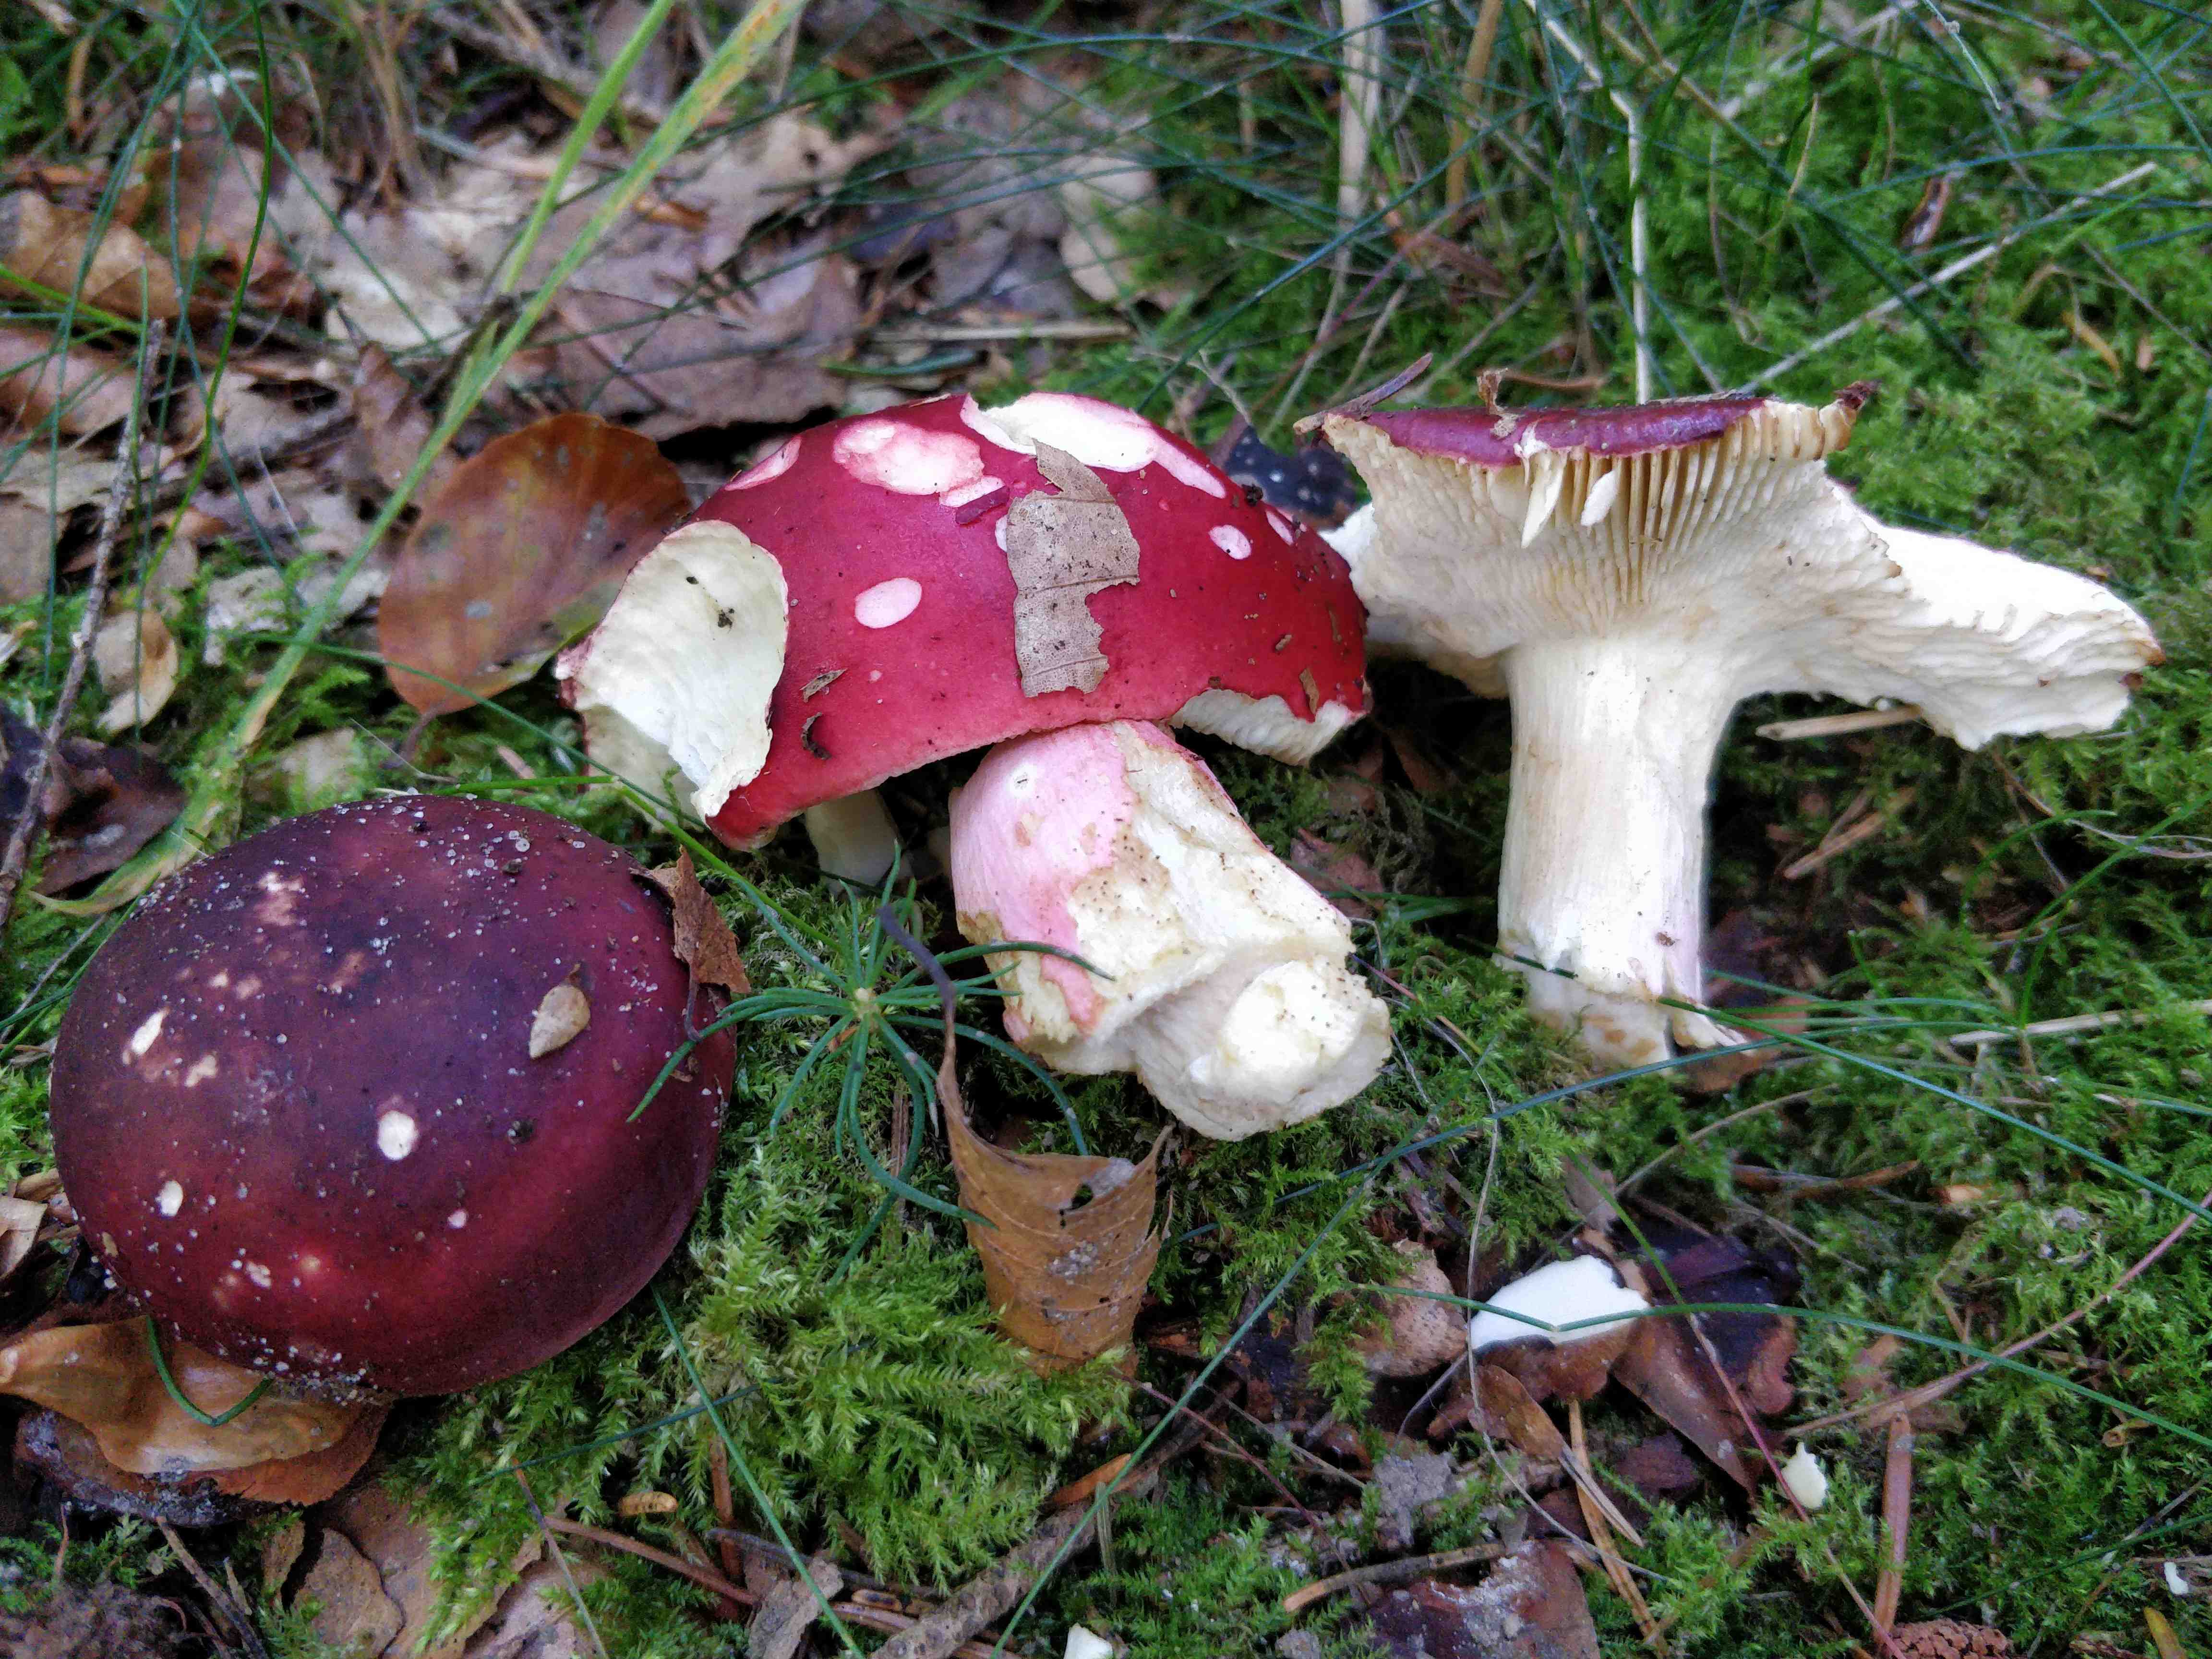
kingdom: Fungi
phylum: Basidiomycota
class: Agaricomycetes
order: Russulales
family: Russulaceae
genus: Russula
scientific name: Russula xerampelina
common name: hummer-skørhat
